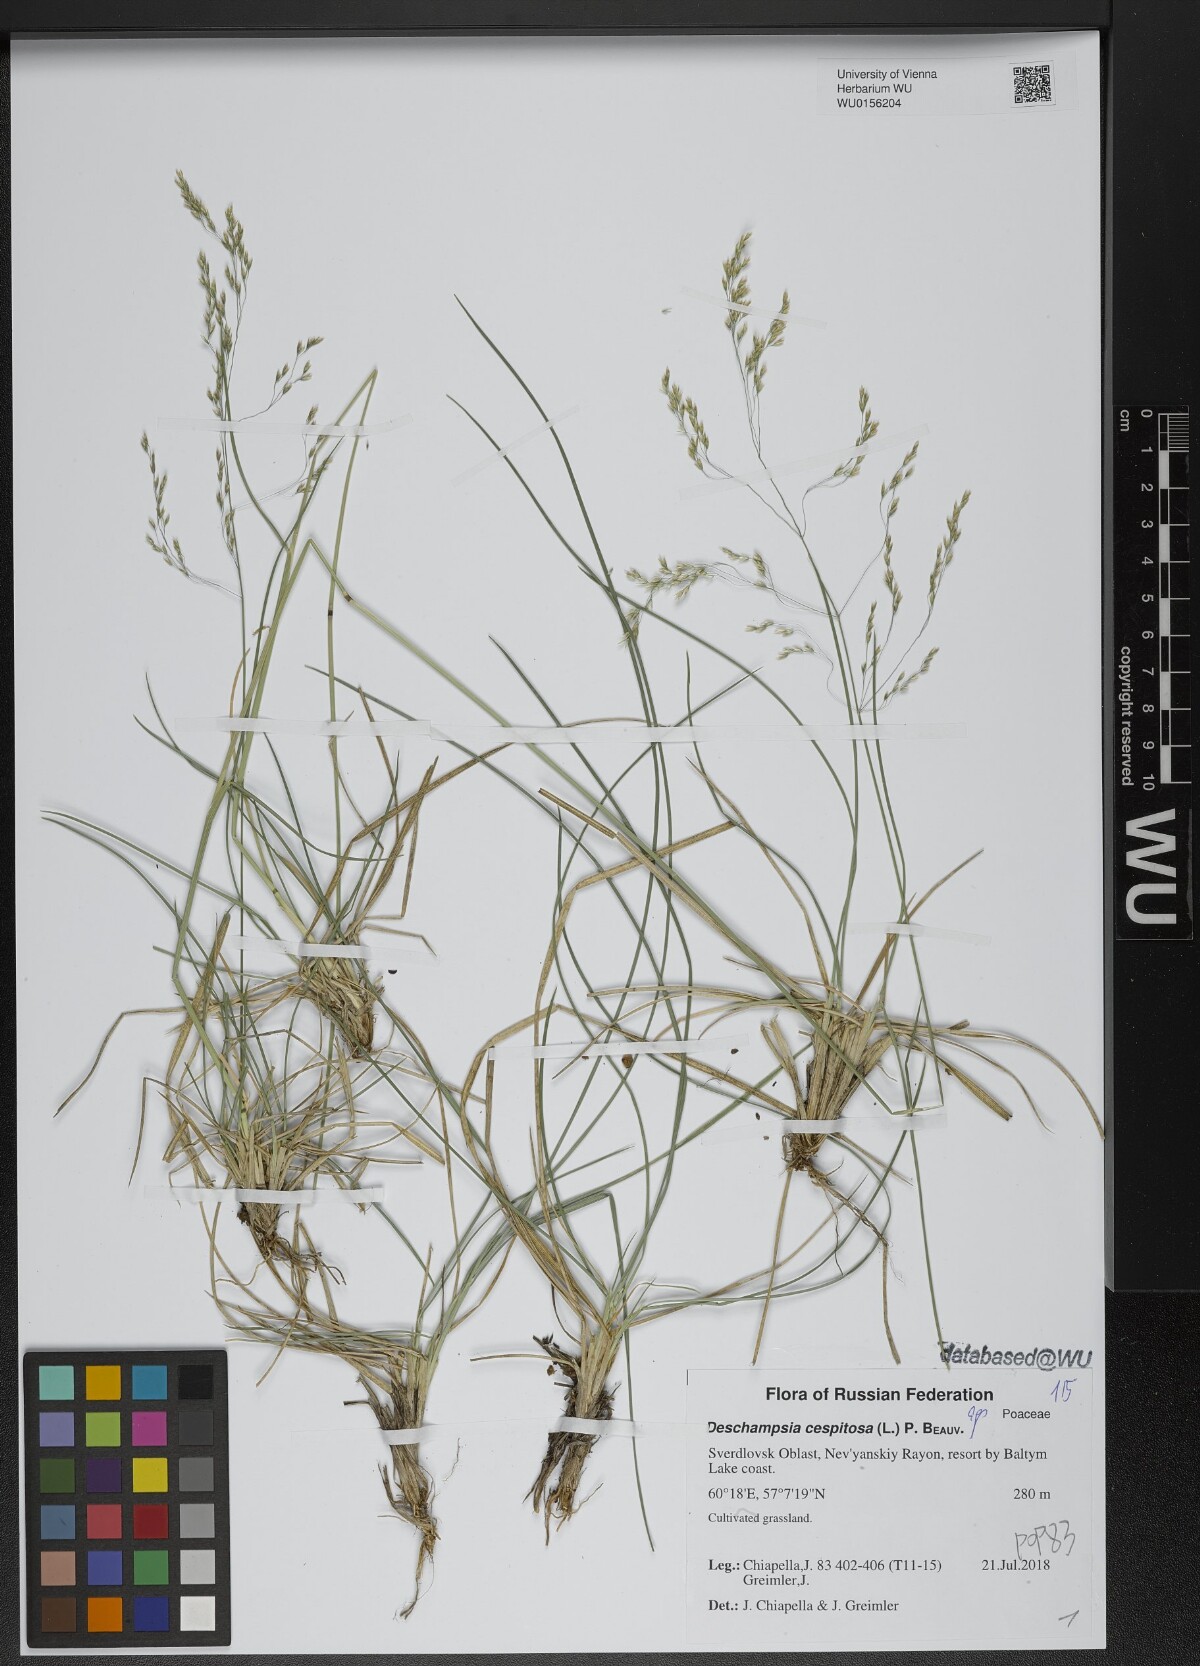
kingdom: Plantae
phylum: Tracheophyta
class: Liliopsida
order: Poales
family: Poaceae
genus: Deschampsia
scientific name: Deschampsia cespitosa
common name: Tufted hair-grass
